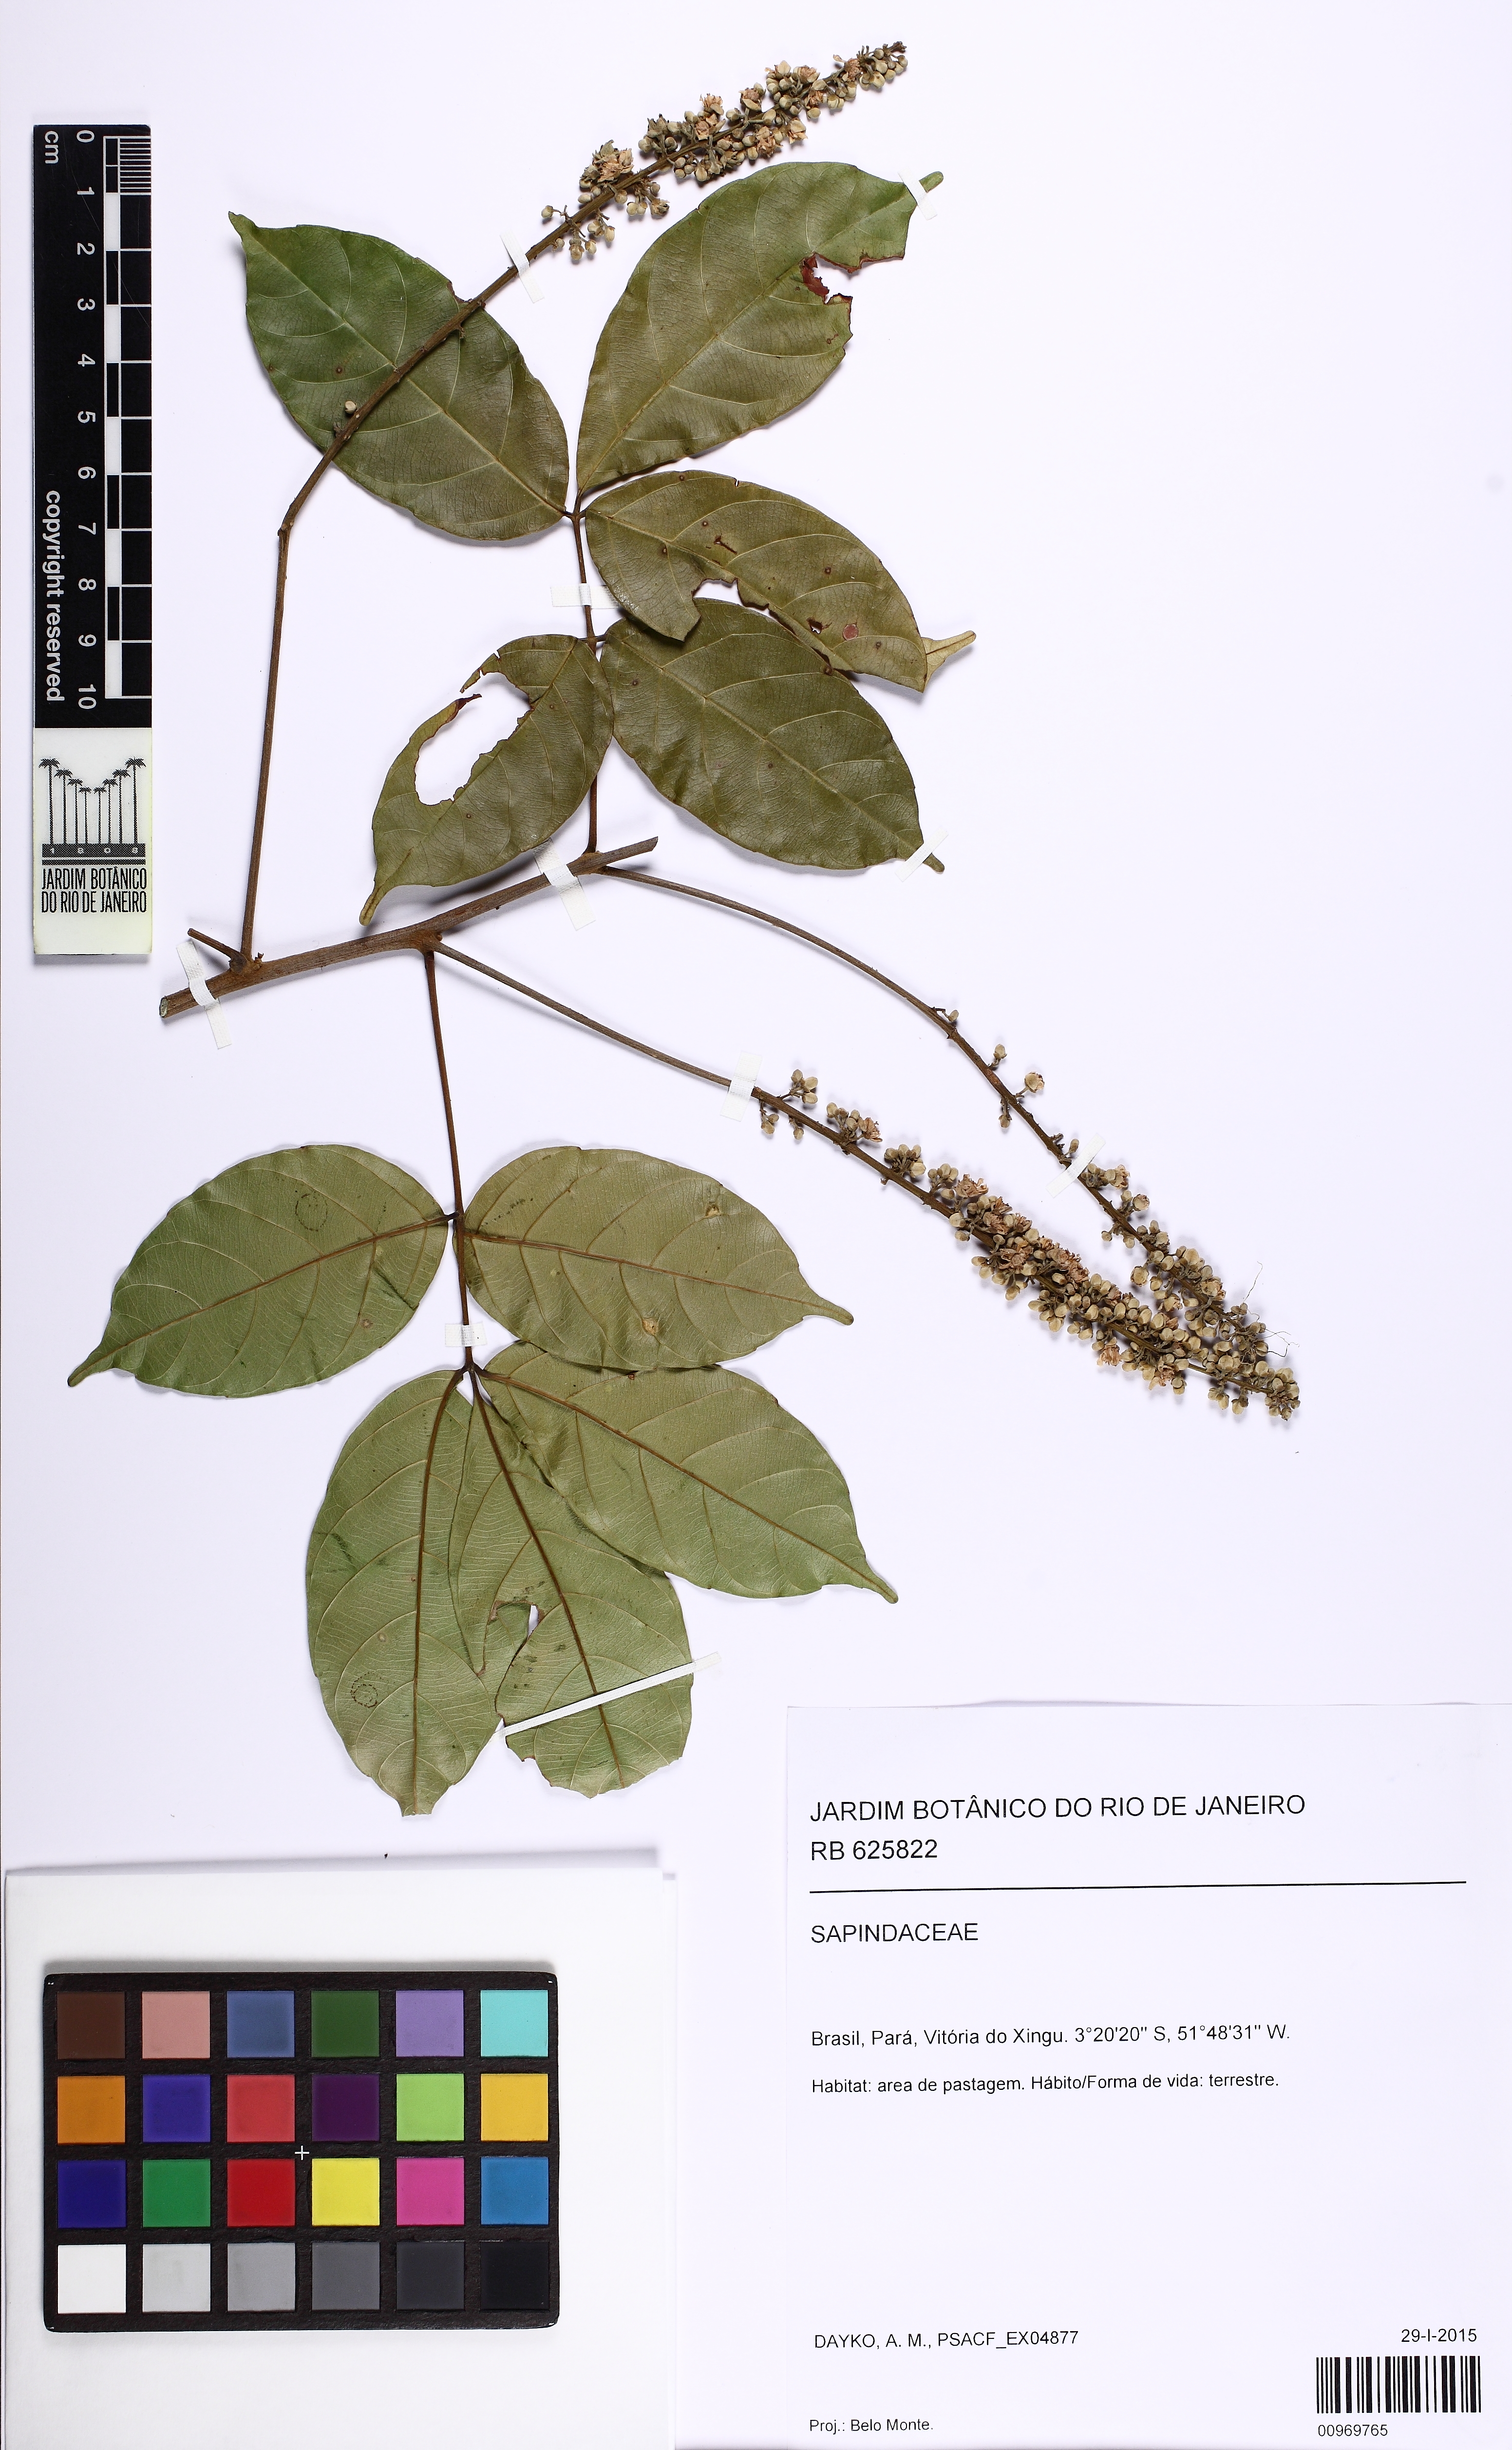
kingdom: Plantae
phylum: Tracheophyta
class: Magnoliopsida
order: Sapindales
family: Sapindaceae
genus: Paullinia
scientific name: Paullinia
